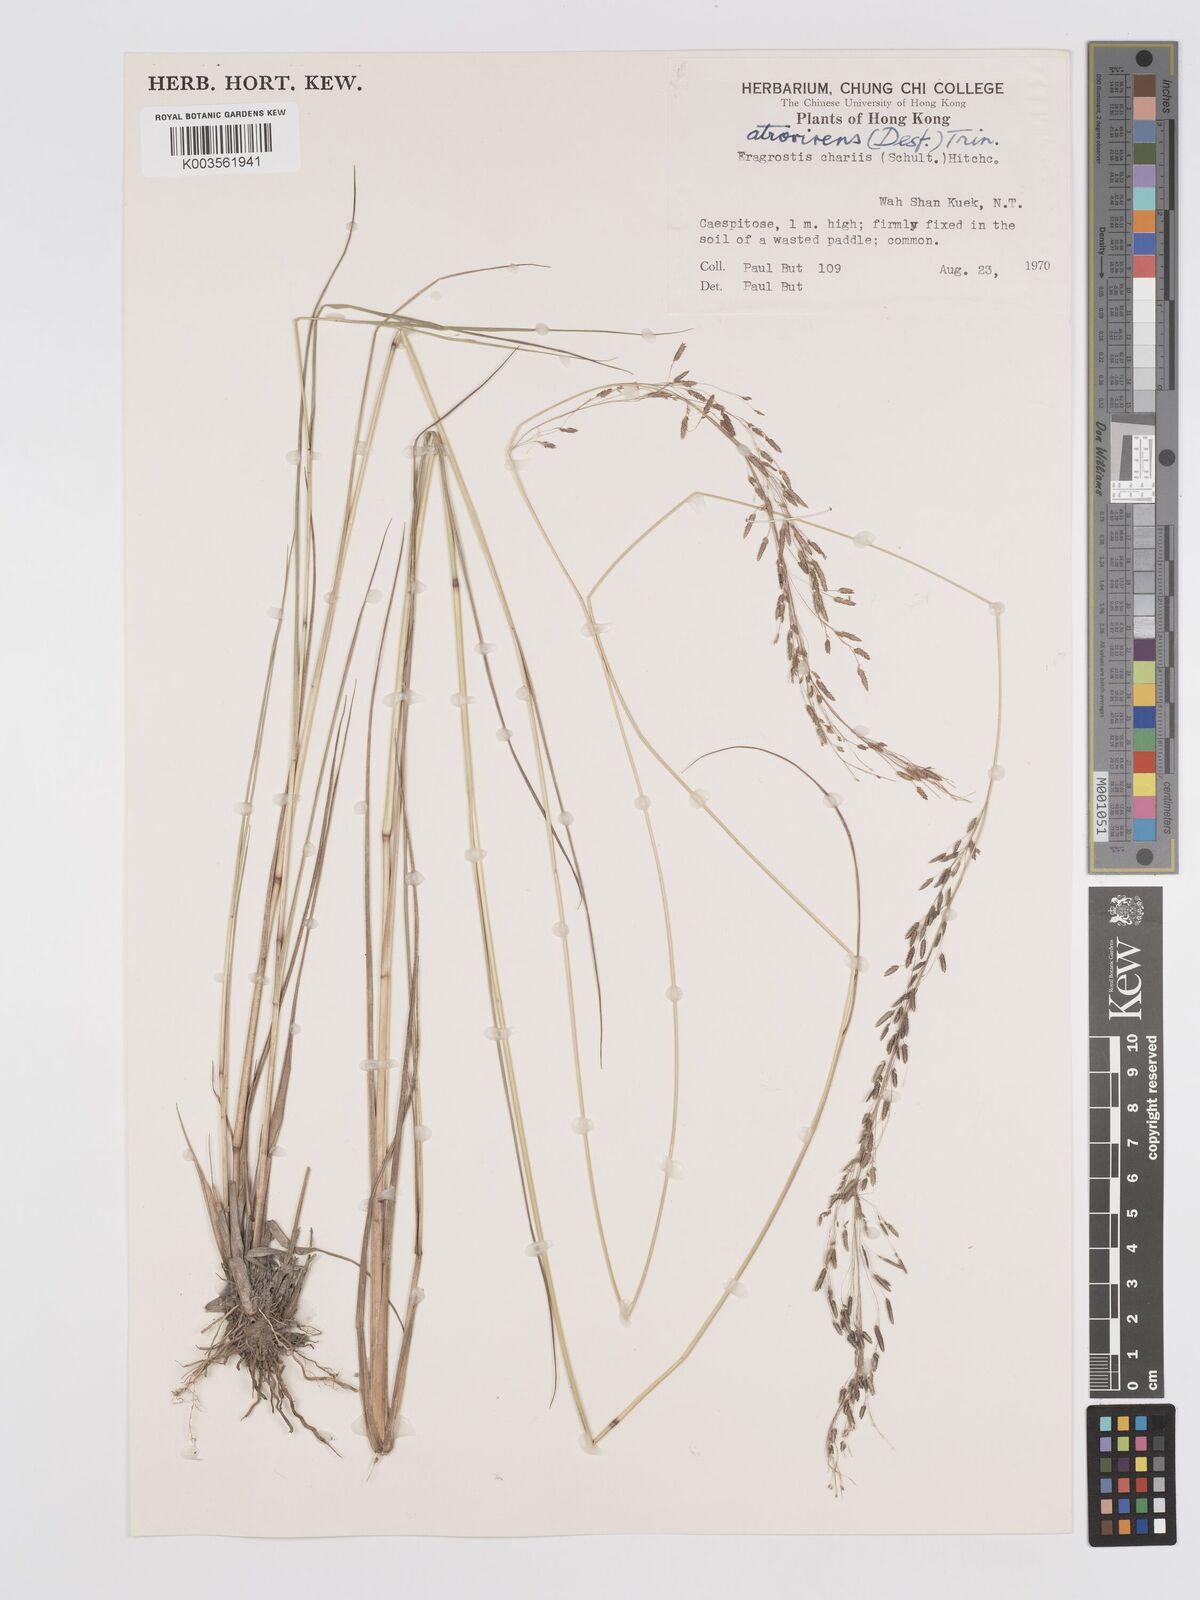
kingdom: Plantae
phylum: Tracheophyta
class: Liliopsida
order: Poales
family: Poaceae
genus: Eragrostis
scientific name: Eragrostis atrovirens
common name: Thalia lovegrass
